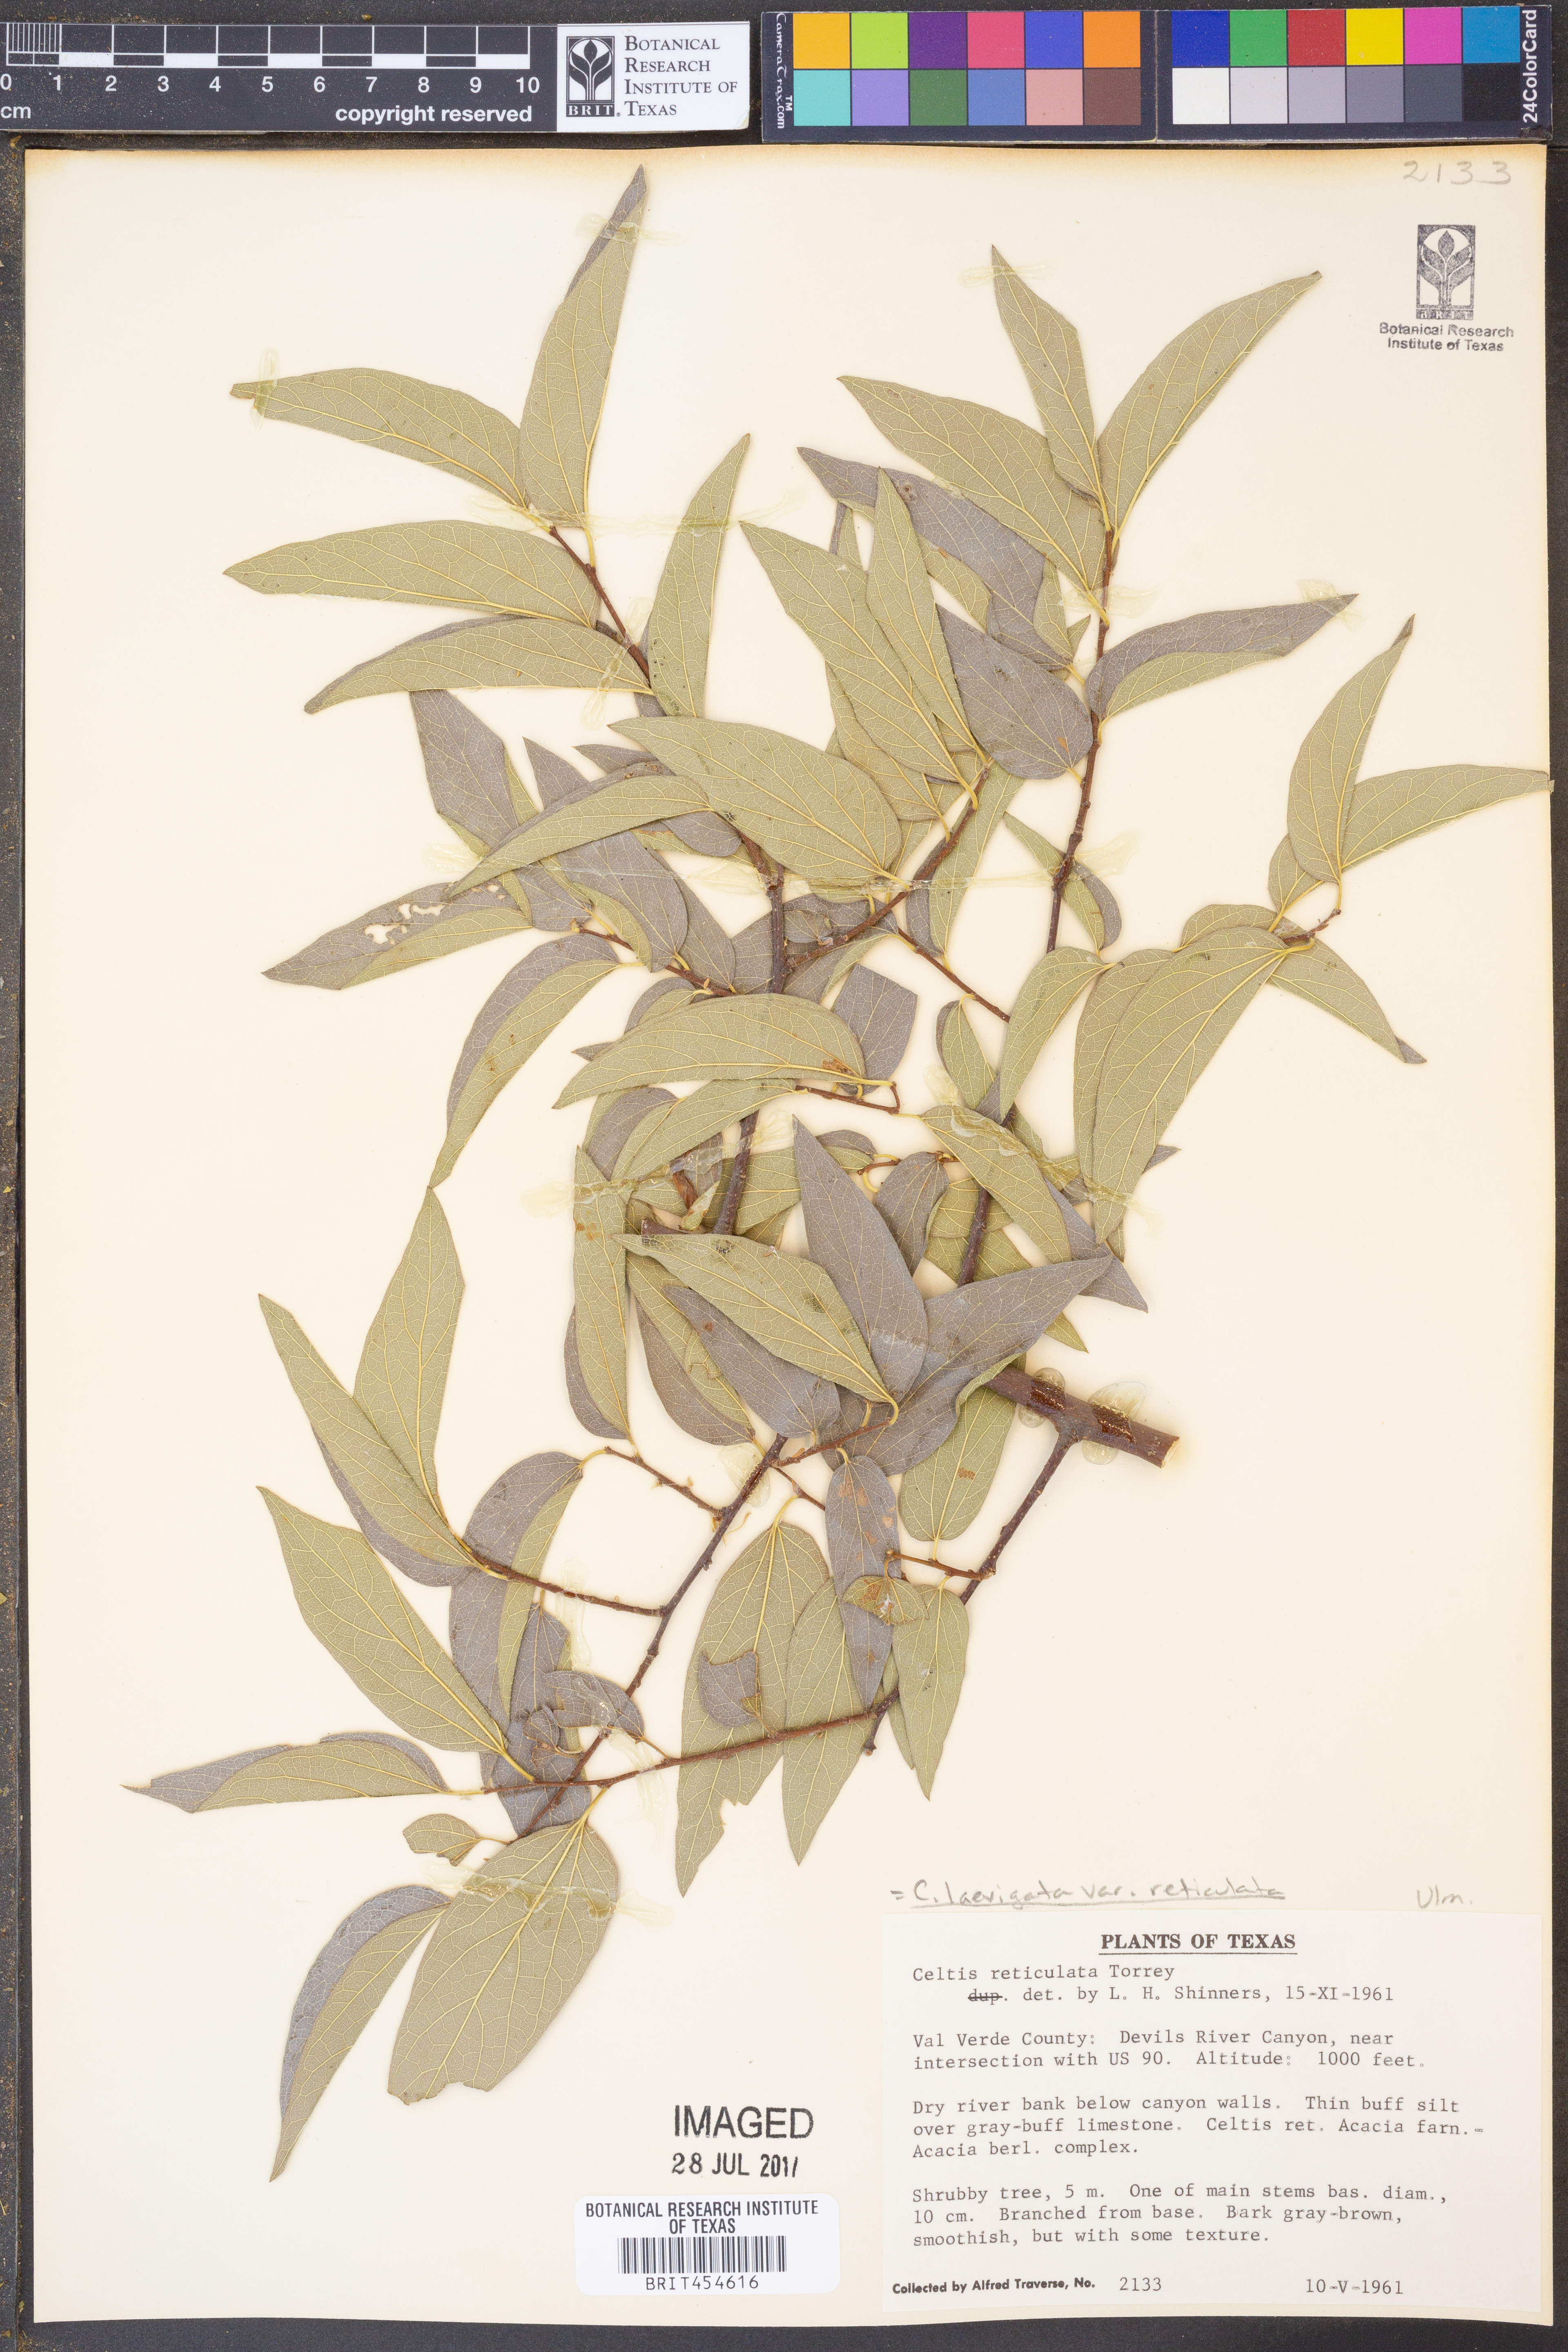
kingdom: Plantae
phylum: Tracheophyta
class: Magnoliopsida
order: Rosales
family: Cannabaceae
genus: Celtis
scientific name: Celtis laevigata
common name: Sugarberry
